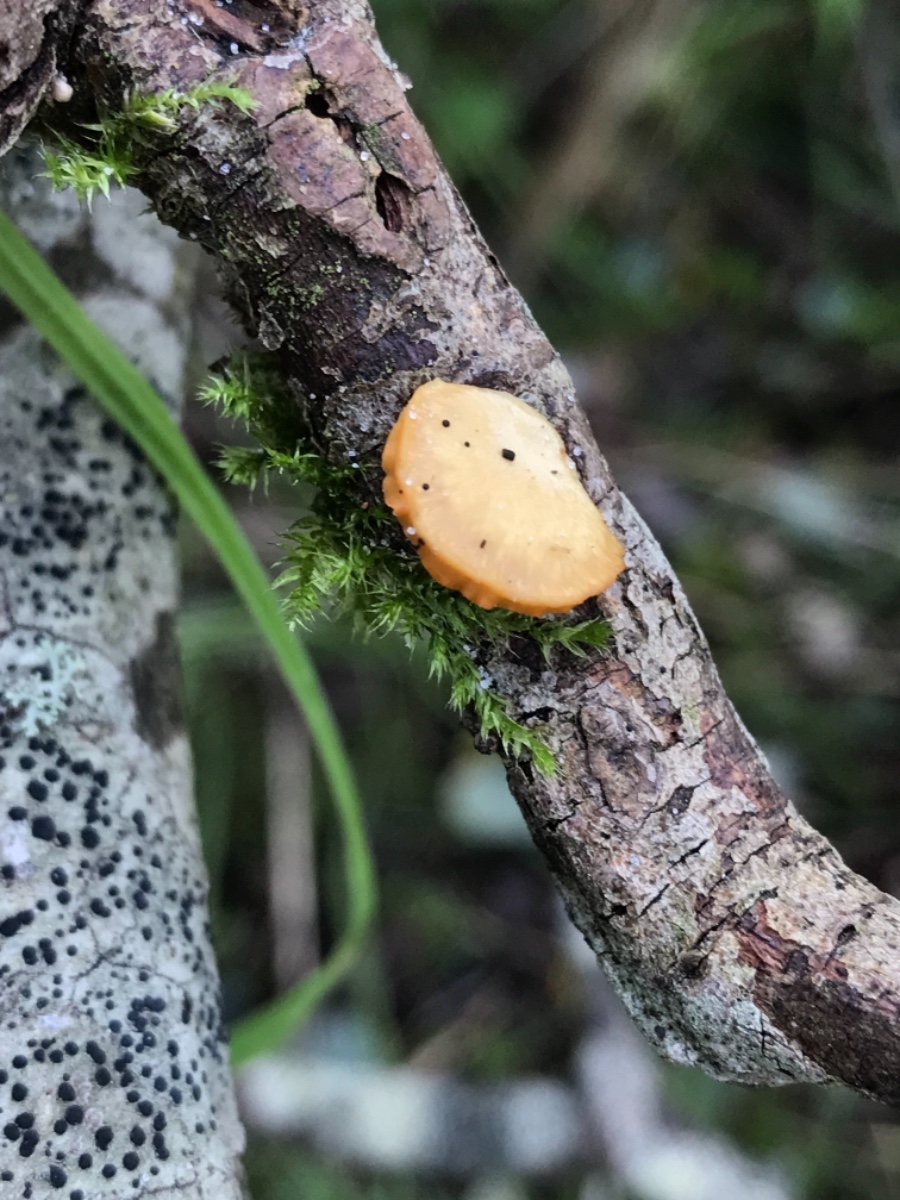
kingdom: Fungi
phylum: Basidiomycota
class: Agaricomycetes
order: Polyporales
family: Polyporaceae
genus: Cerioporus
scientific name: Cerioporus varius
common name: foranderlig stilkporesvamp
